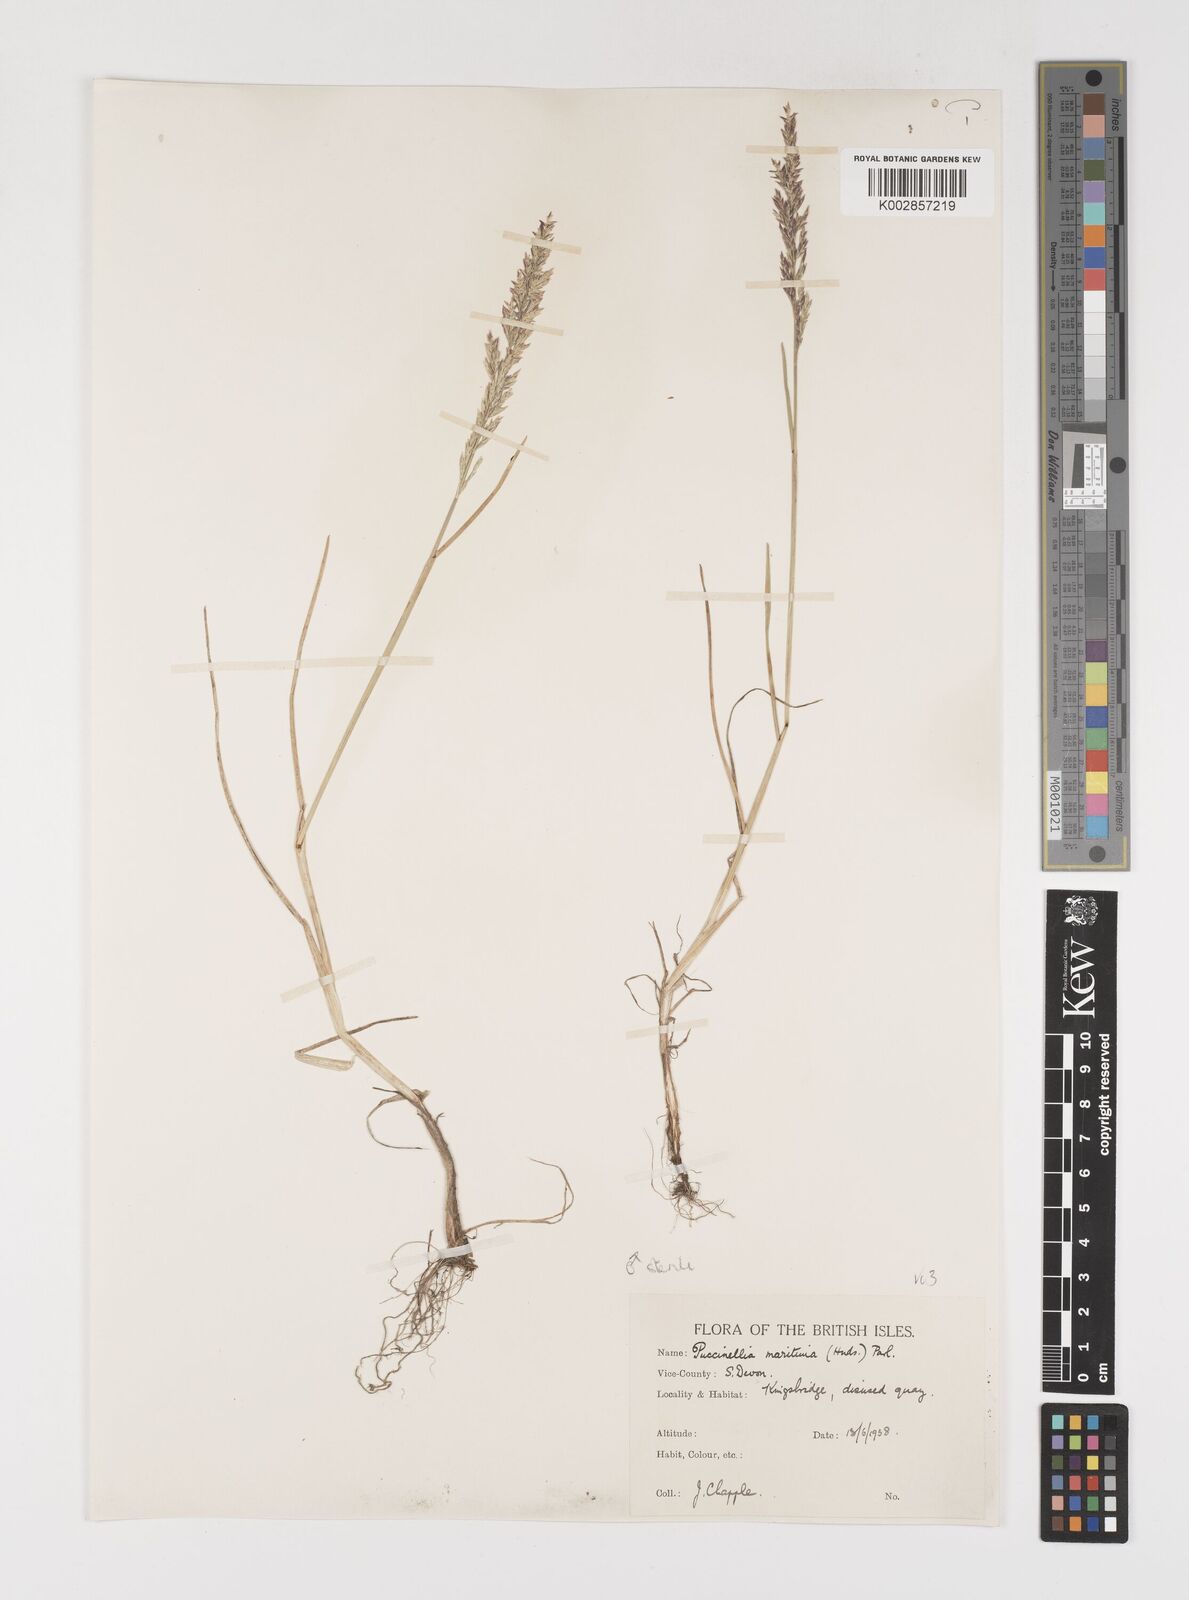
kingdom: Plantae
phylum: Tracheophyta
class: Liliopsida
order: Poales
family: Poaceae
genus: Puccinellia
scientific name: Puccinellia
